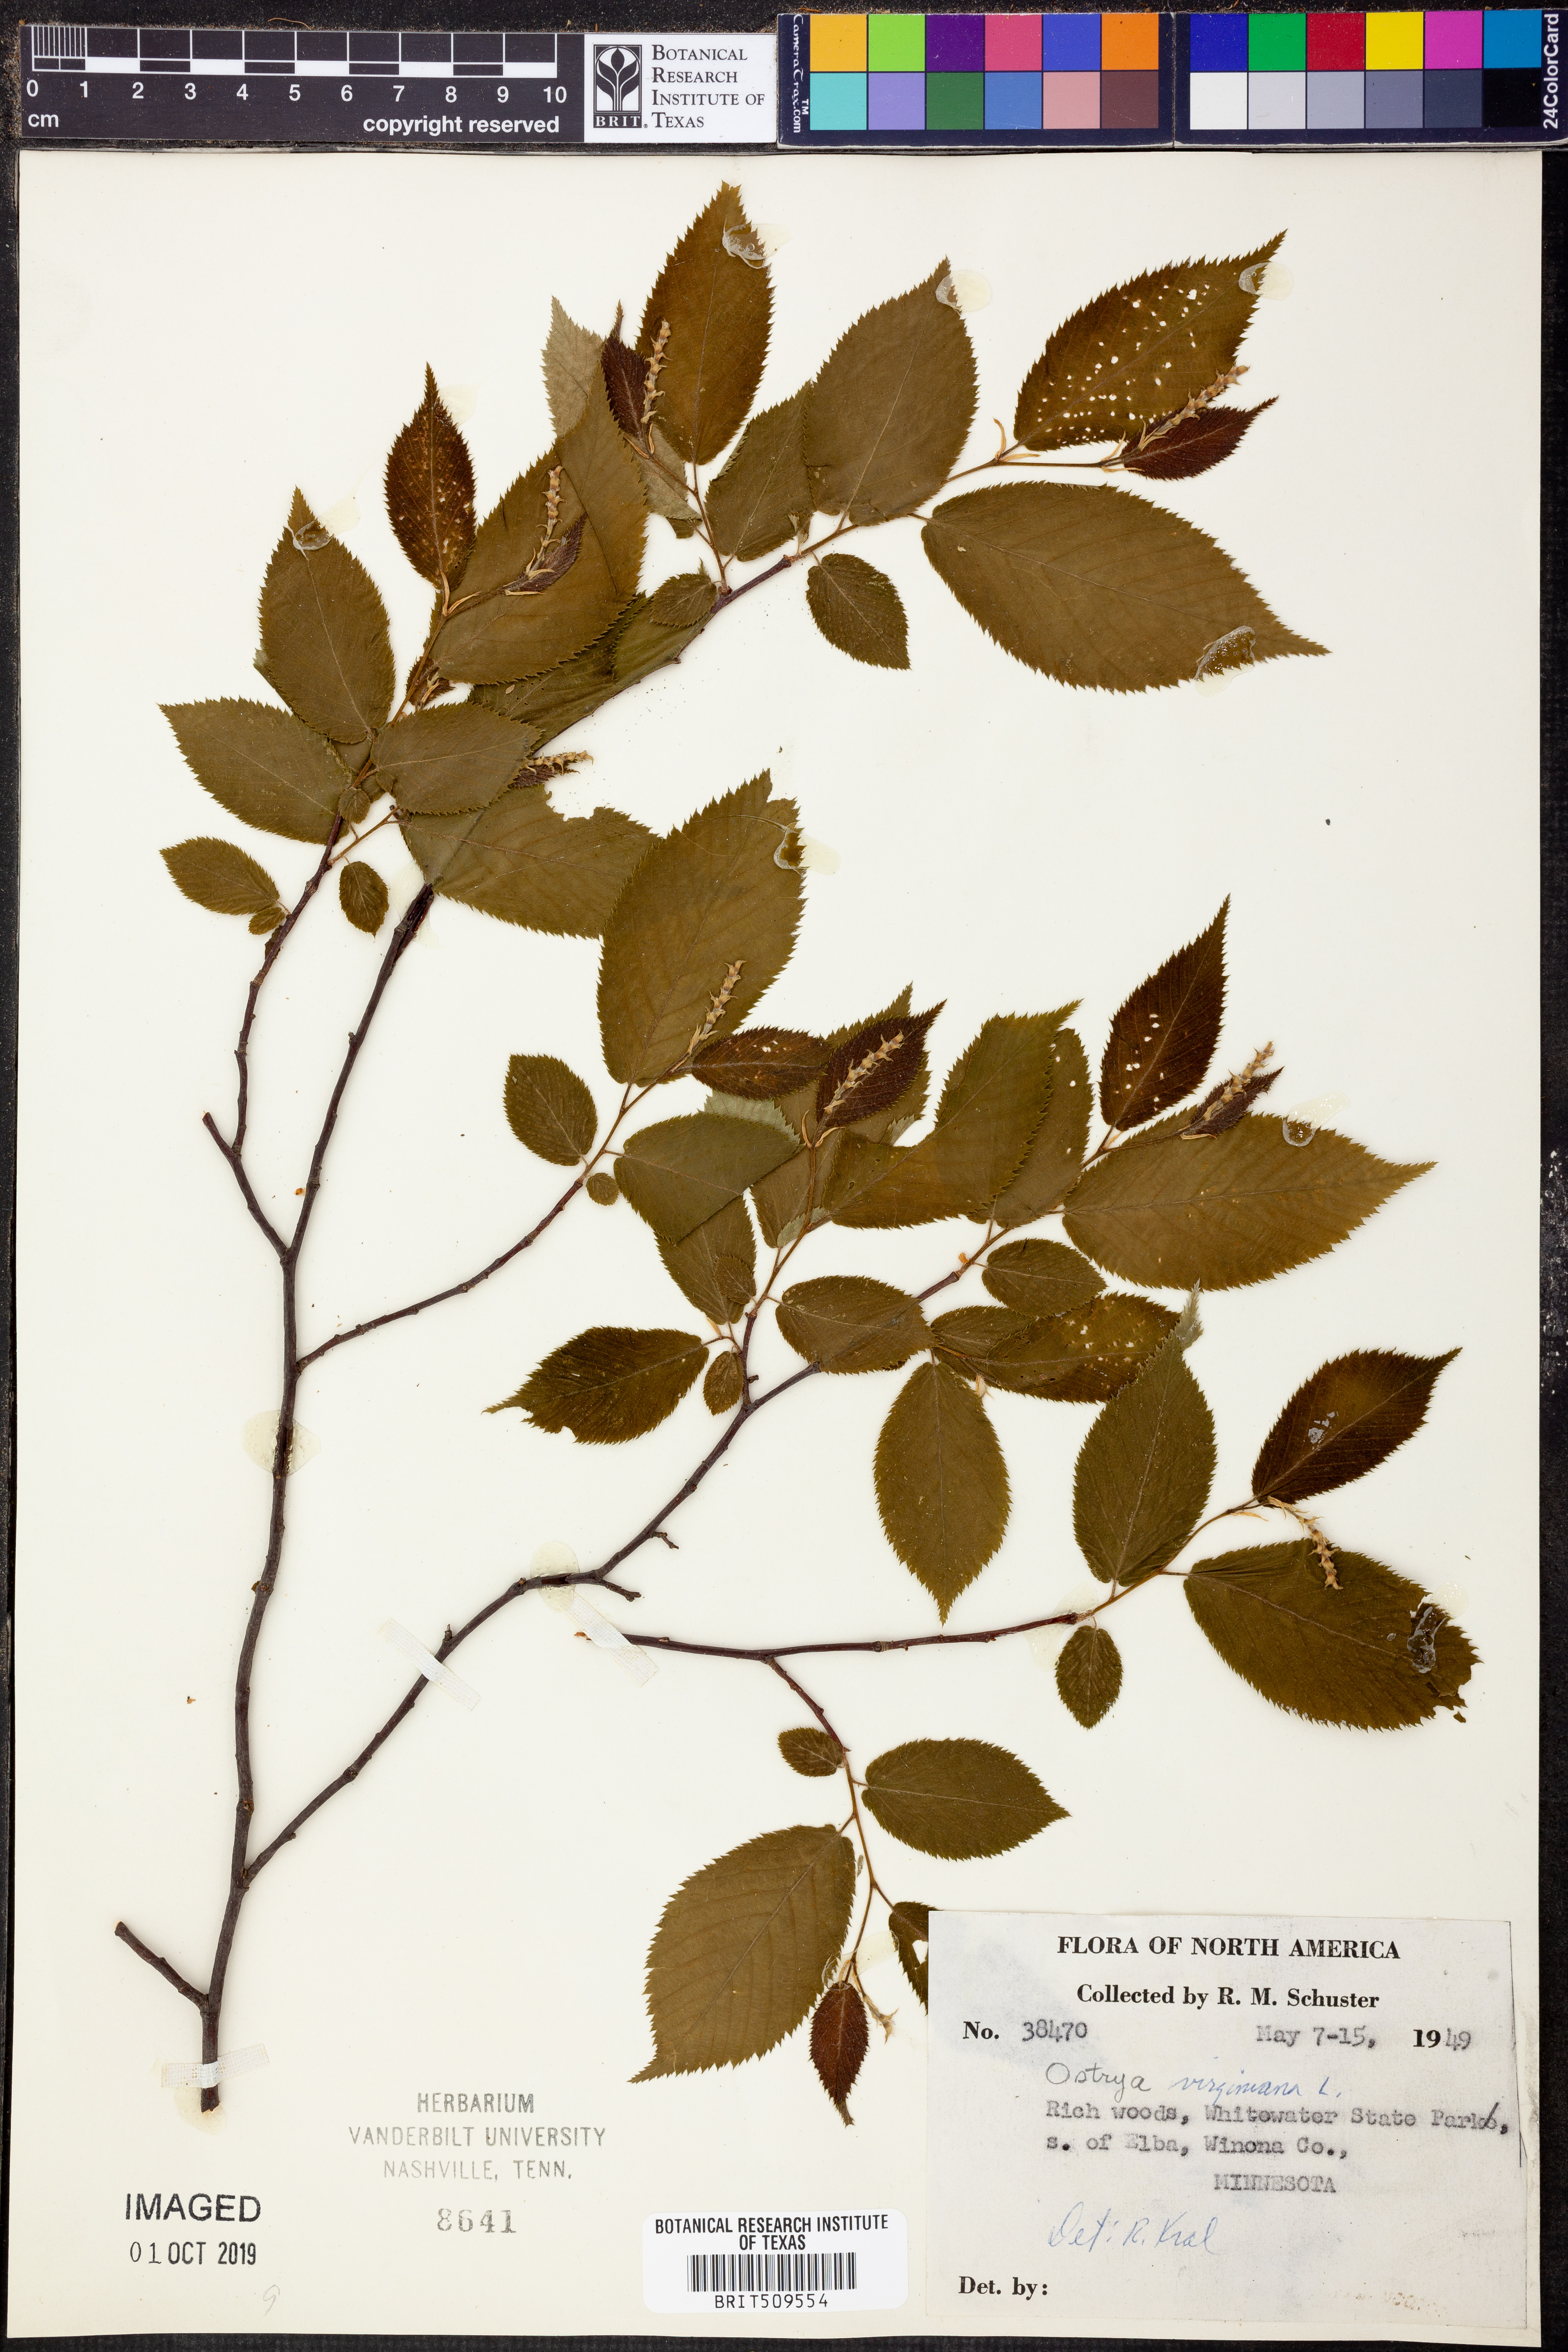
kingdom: Plantae
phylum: Tracheophyta
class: Magnoliopsida
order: Fagales
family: Betulaceae
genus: Ostrya
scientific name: Ostrya virginiana
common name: Ironwood
